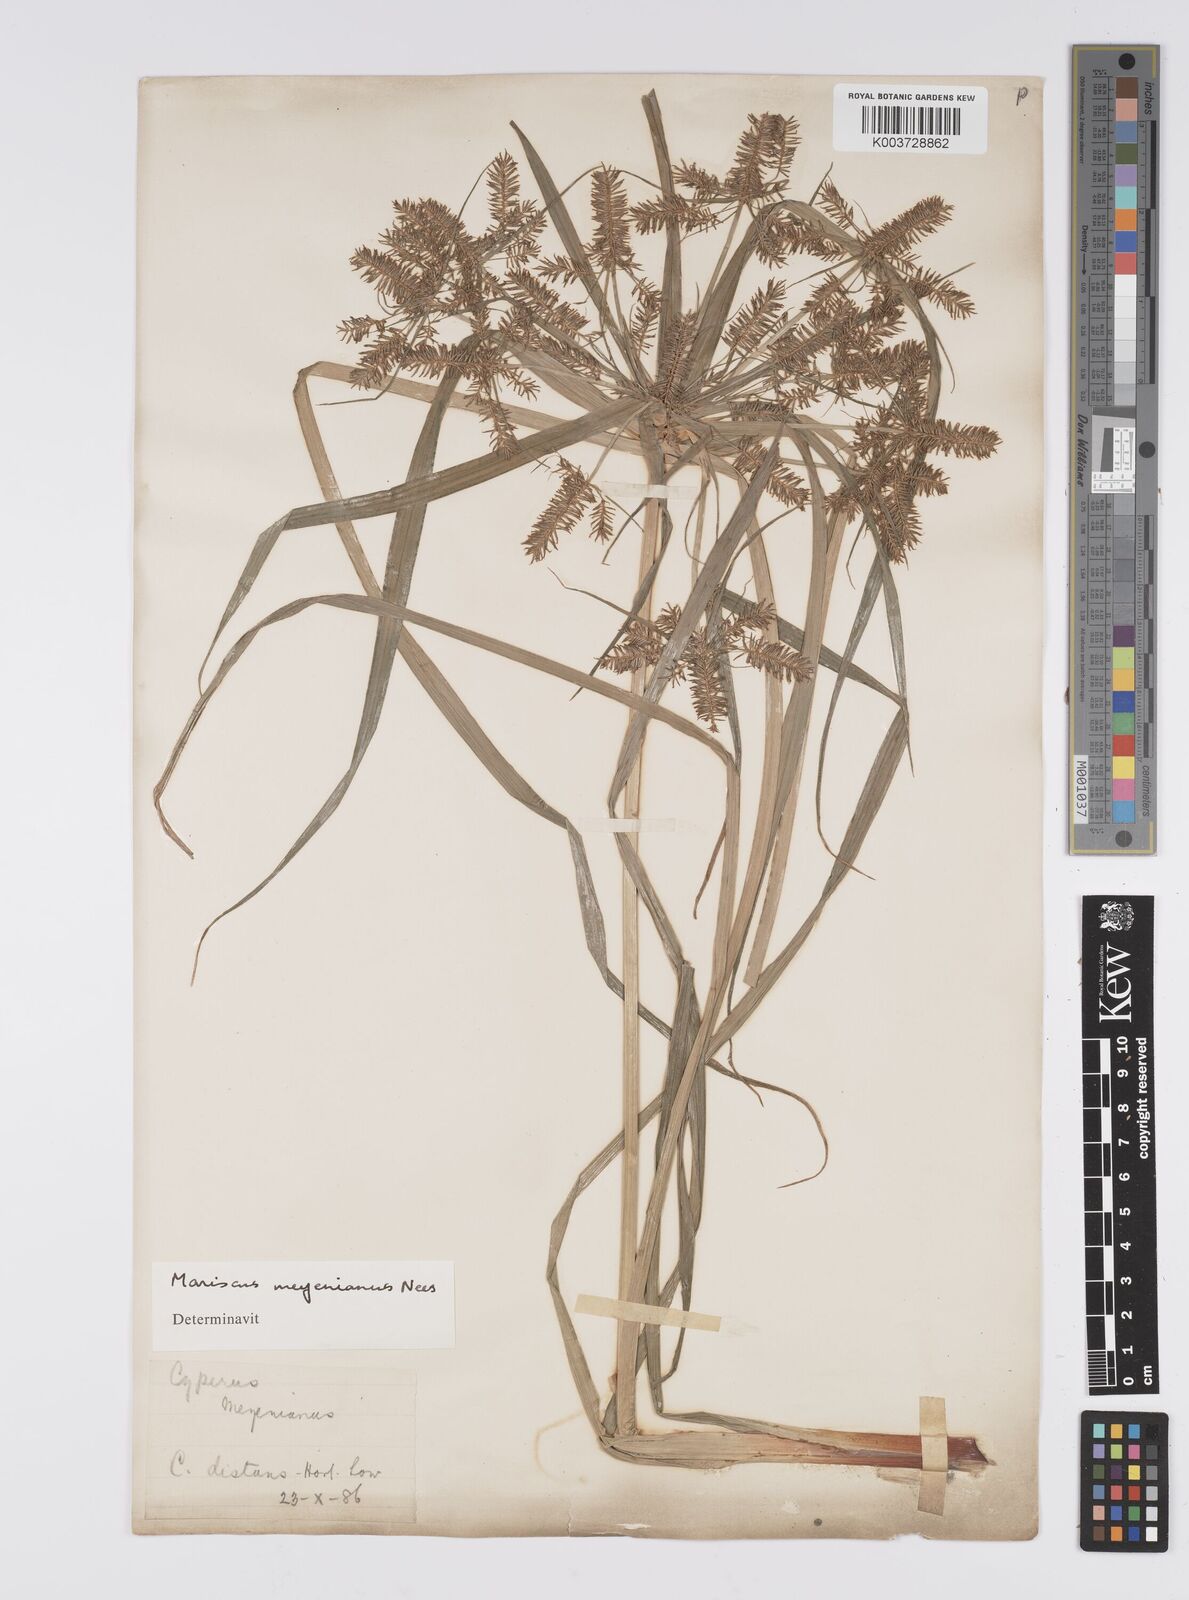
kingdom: Plantae
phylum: Tracheophyta
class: Liliopsida
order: Poales
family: Cyperaceae
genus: Cyperus
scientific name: Cyperus meyenianus
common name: Meyen's flatsedge
